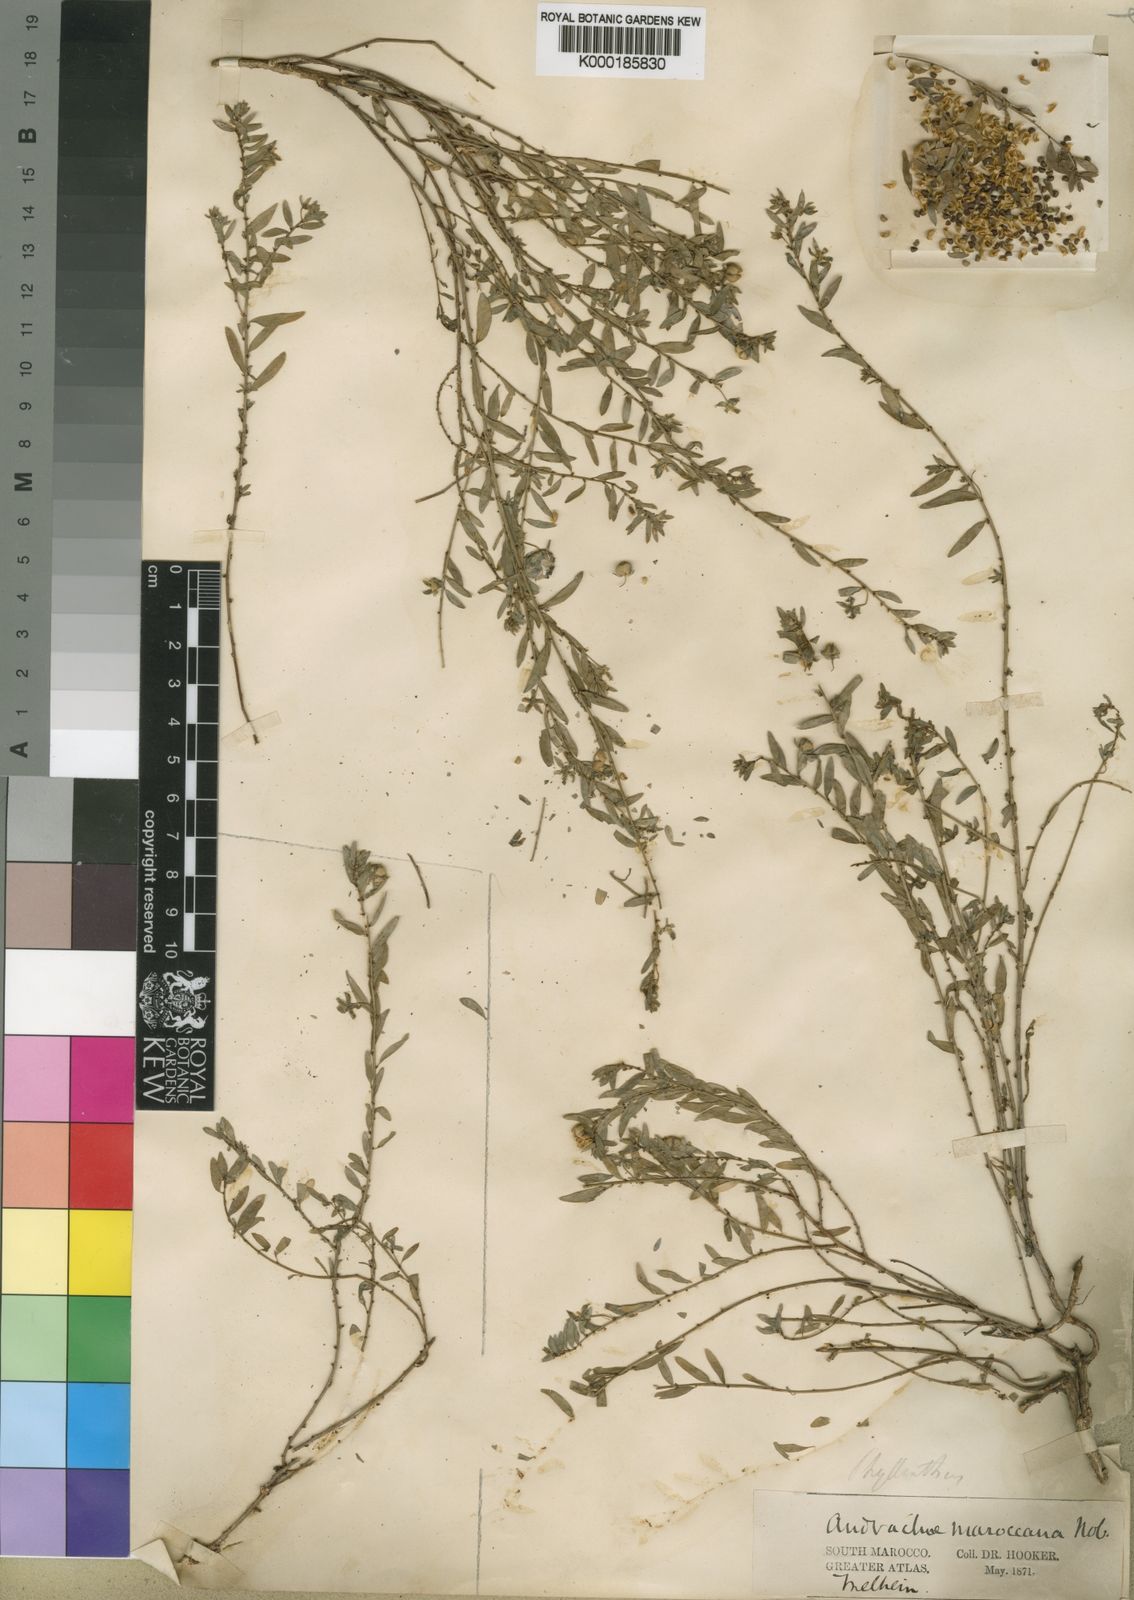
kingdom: Plantae
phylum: Tracheophyta
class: Magnoliopsida
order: Malpighiales
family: Phyllanthaceae
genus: Andrachne
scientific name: Andrachne
